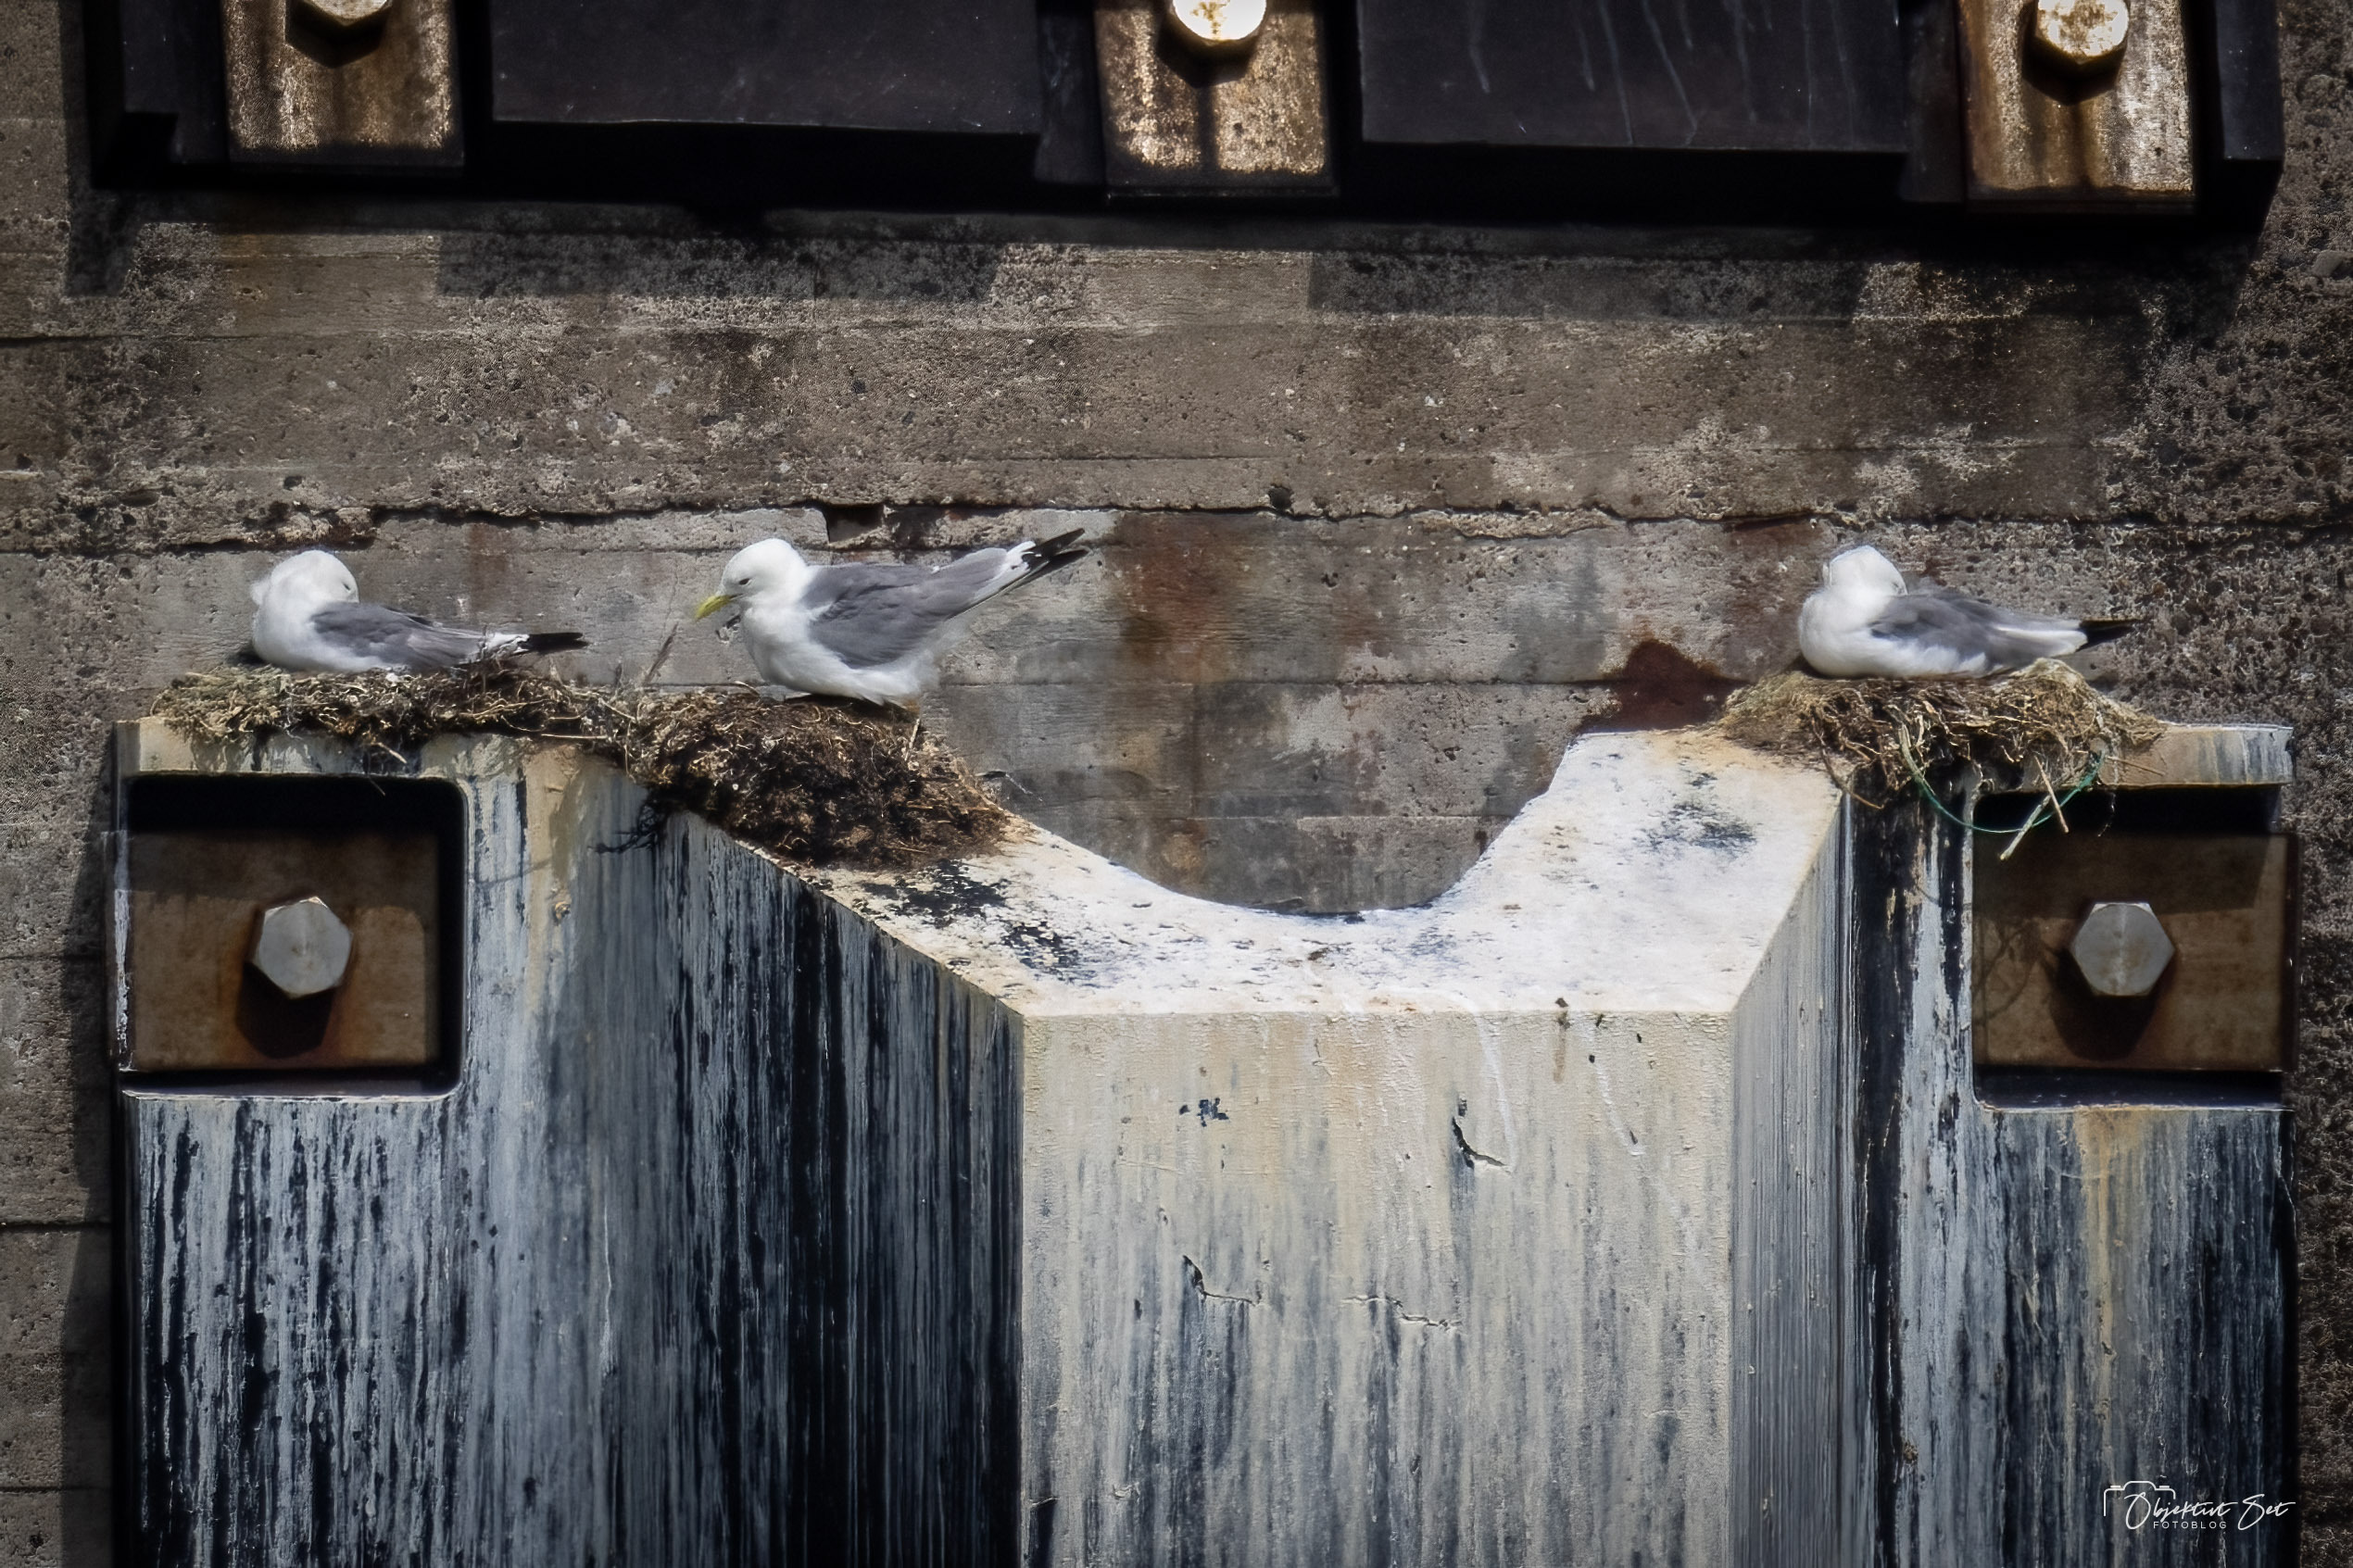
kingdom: Animalia
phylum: Chordata
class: Aves
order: Charadriiformes
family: Laridae
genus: Rissa
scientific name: Rissa tridactyla
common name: Ride
